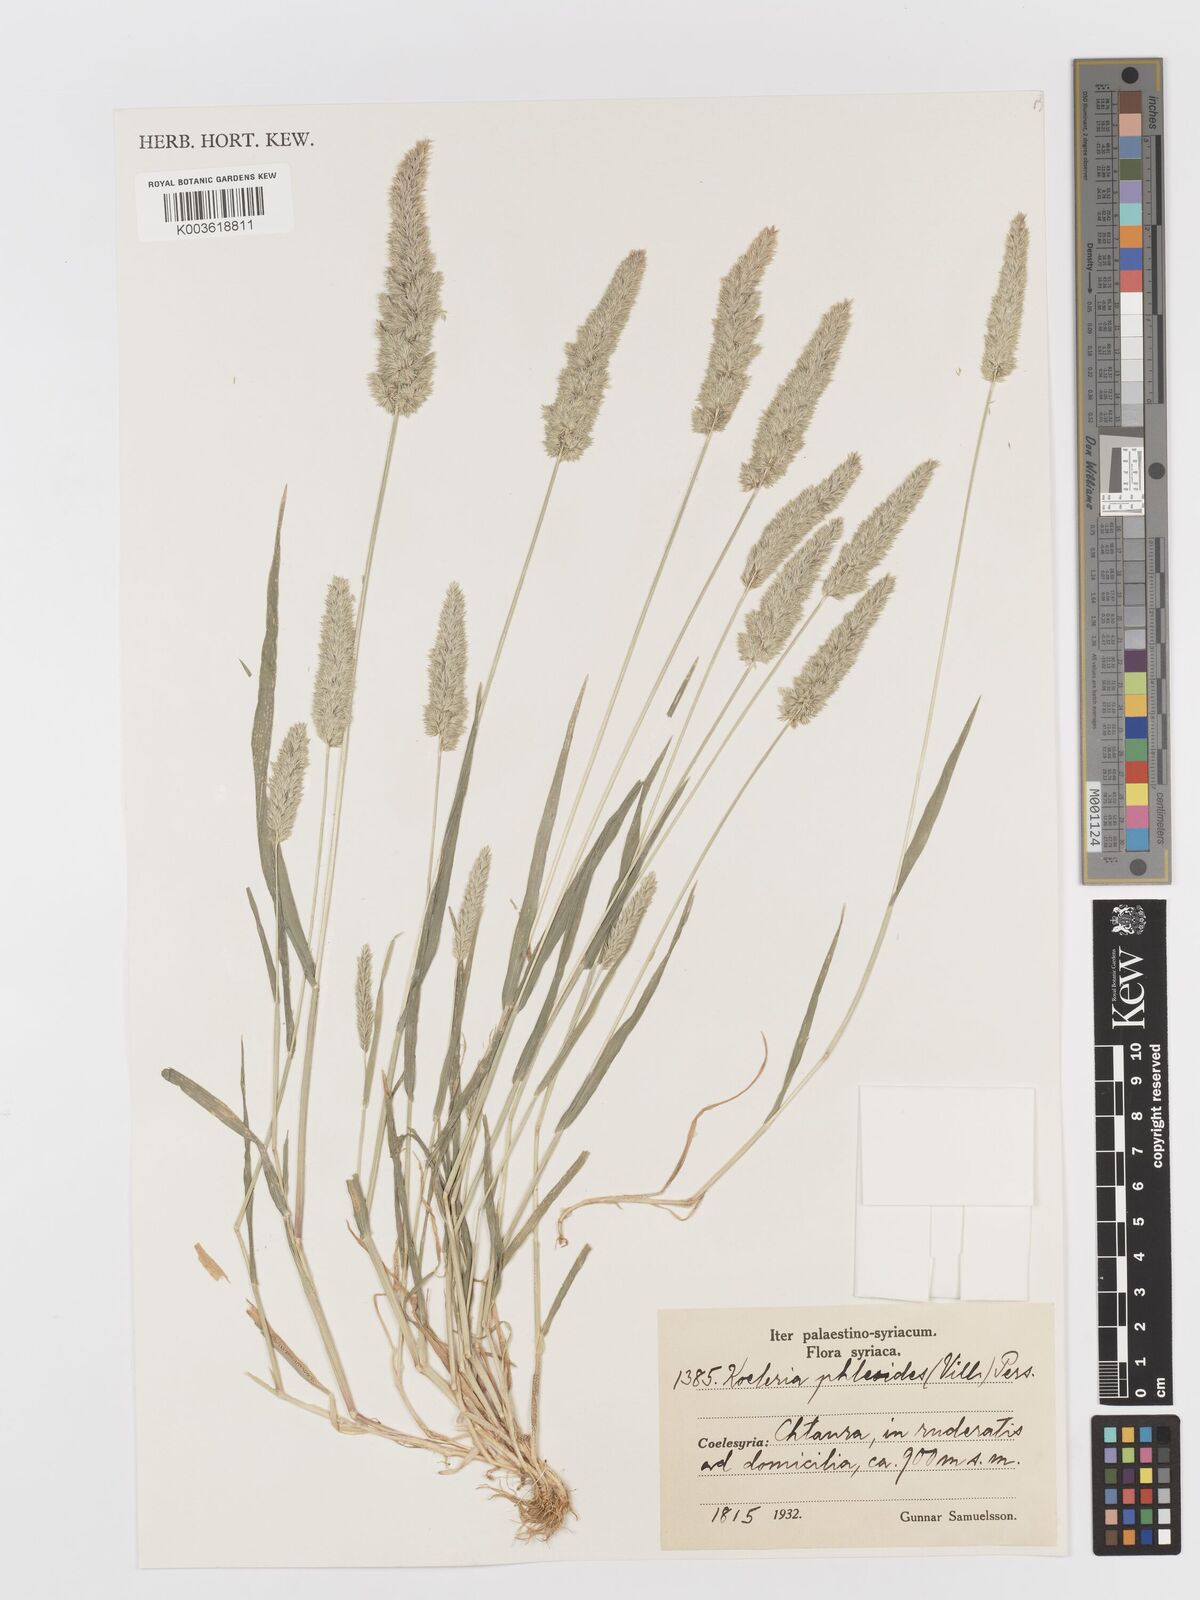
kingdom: Plantae
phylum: Tracheophyta
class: Liliopsida
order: Poales
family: Poaceae
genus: Rostraria
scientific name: Rostraria cristata
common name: Mediterranean hair-grass
